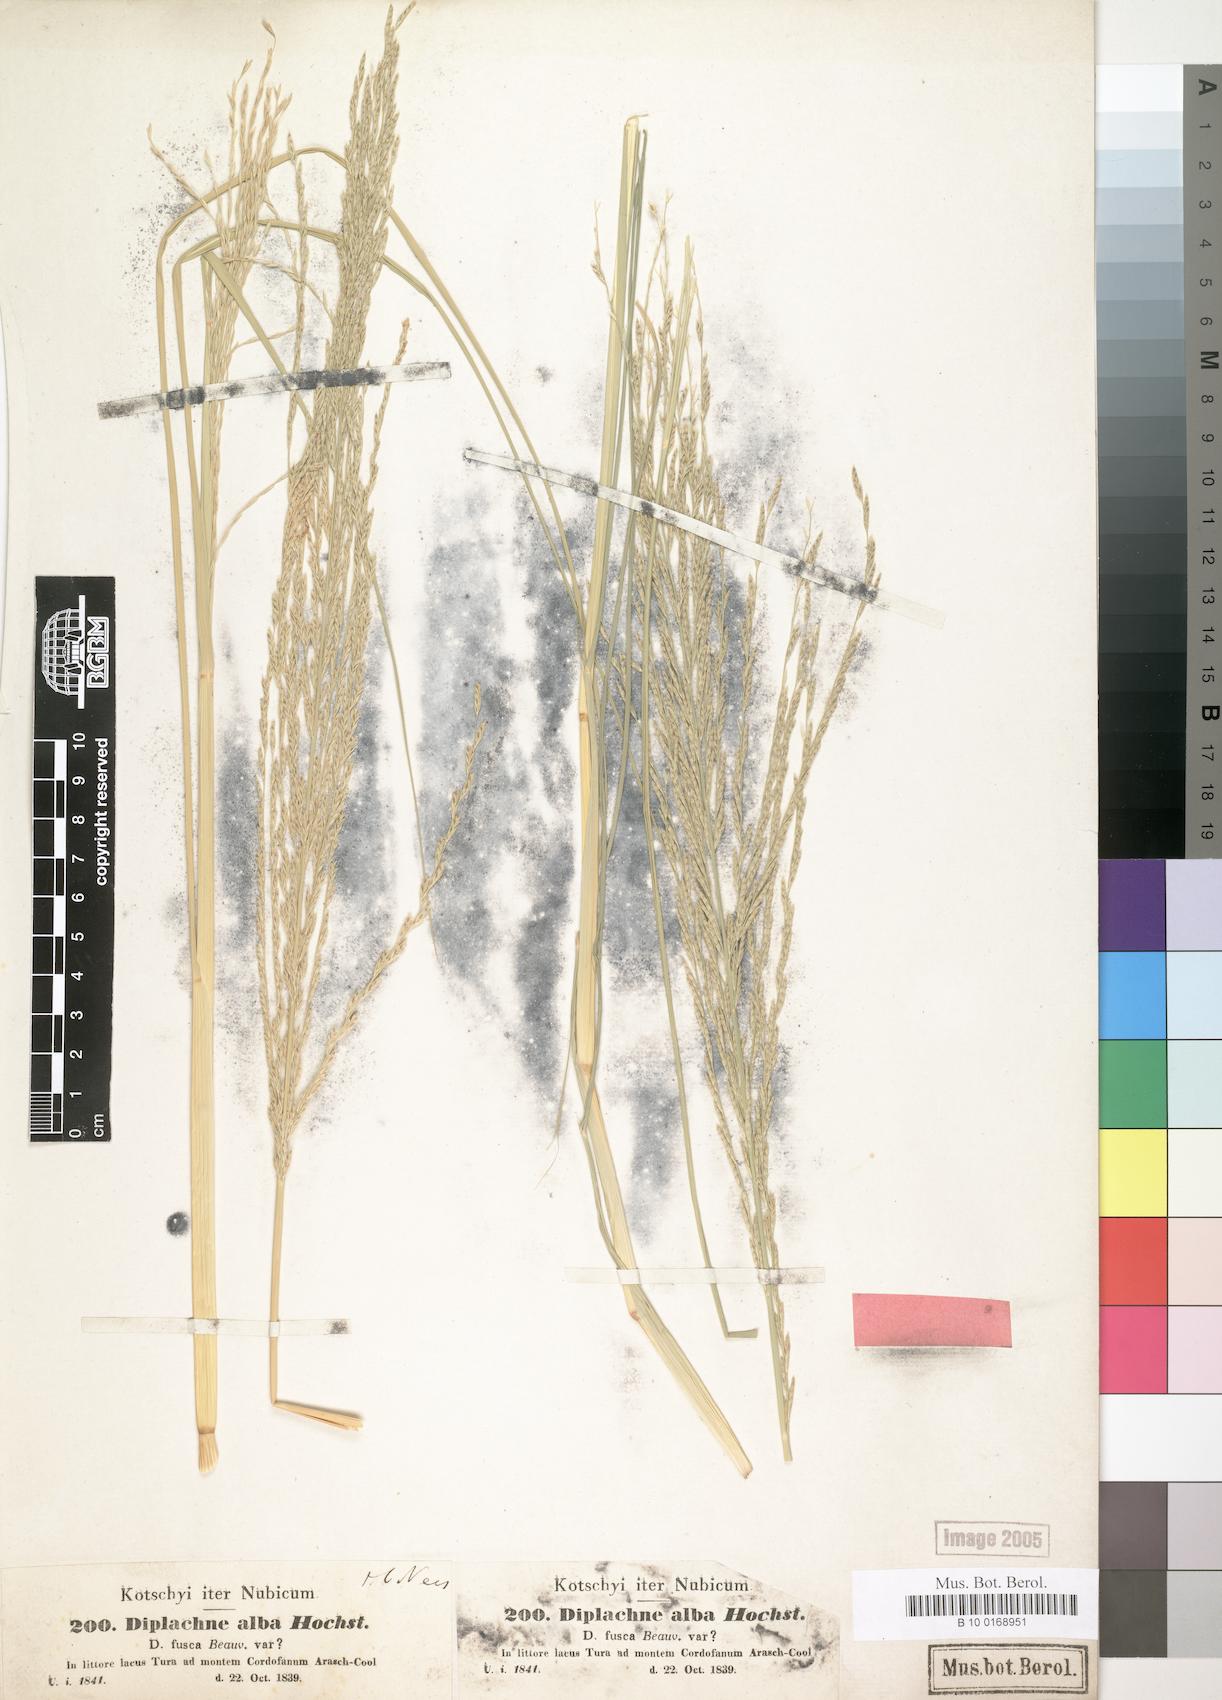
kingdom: Plantae
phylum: Tracheophyta
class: Liliopsida
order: Poales
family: Poaceae
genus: Diplachne
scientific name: Diplachne fusca
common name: Brown beetle grass
